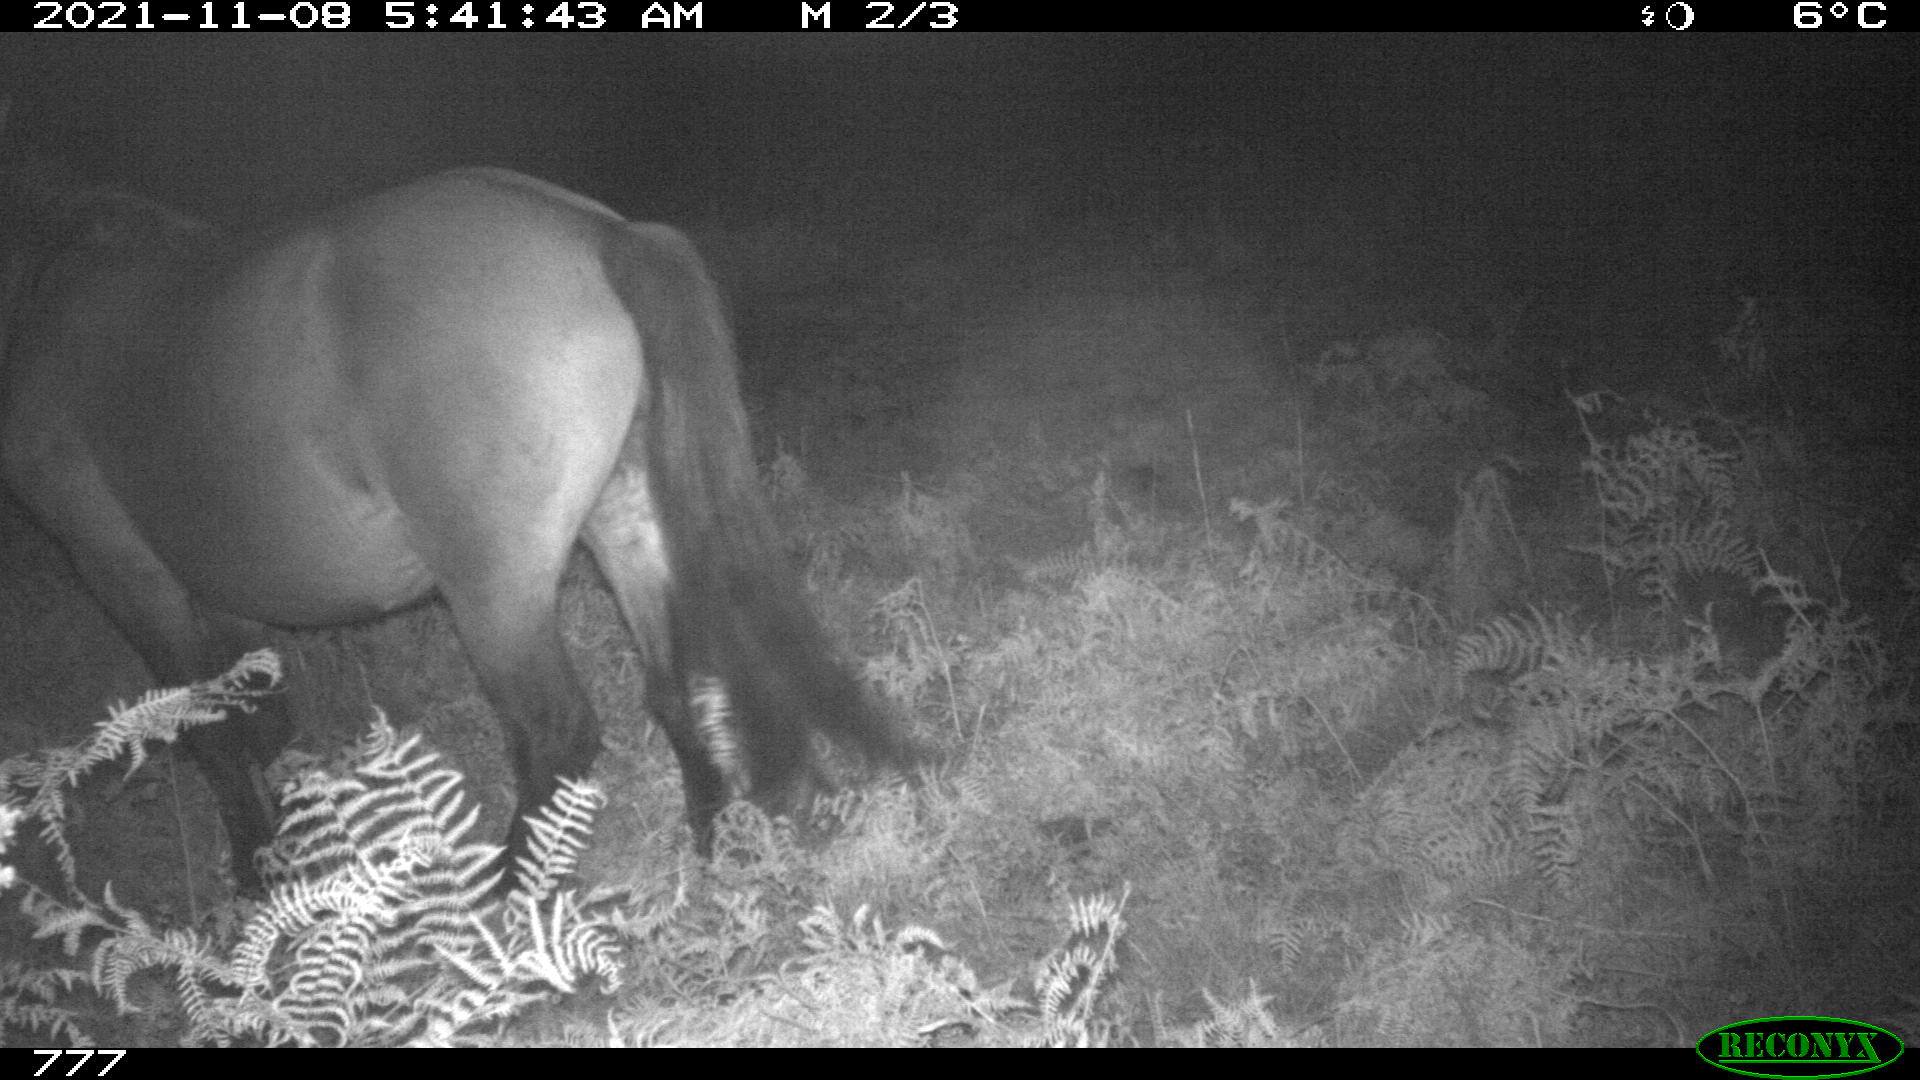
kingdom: Animalia
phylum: Chordata
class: Mammalia
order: Perissodactyla
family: Equidae
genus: Equus
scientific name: Equus caballus
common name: Horse
